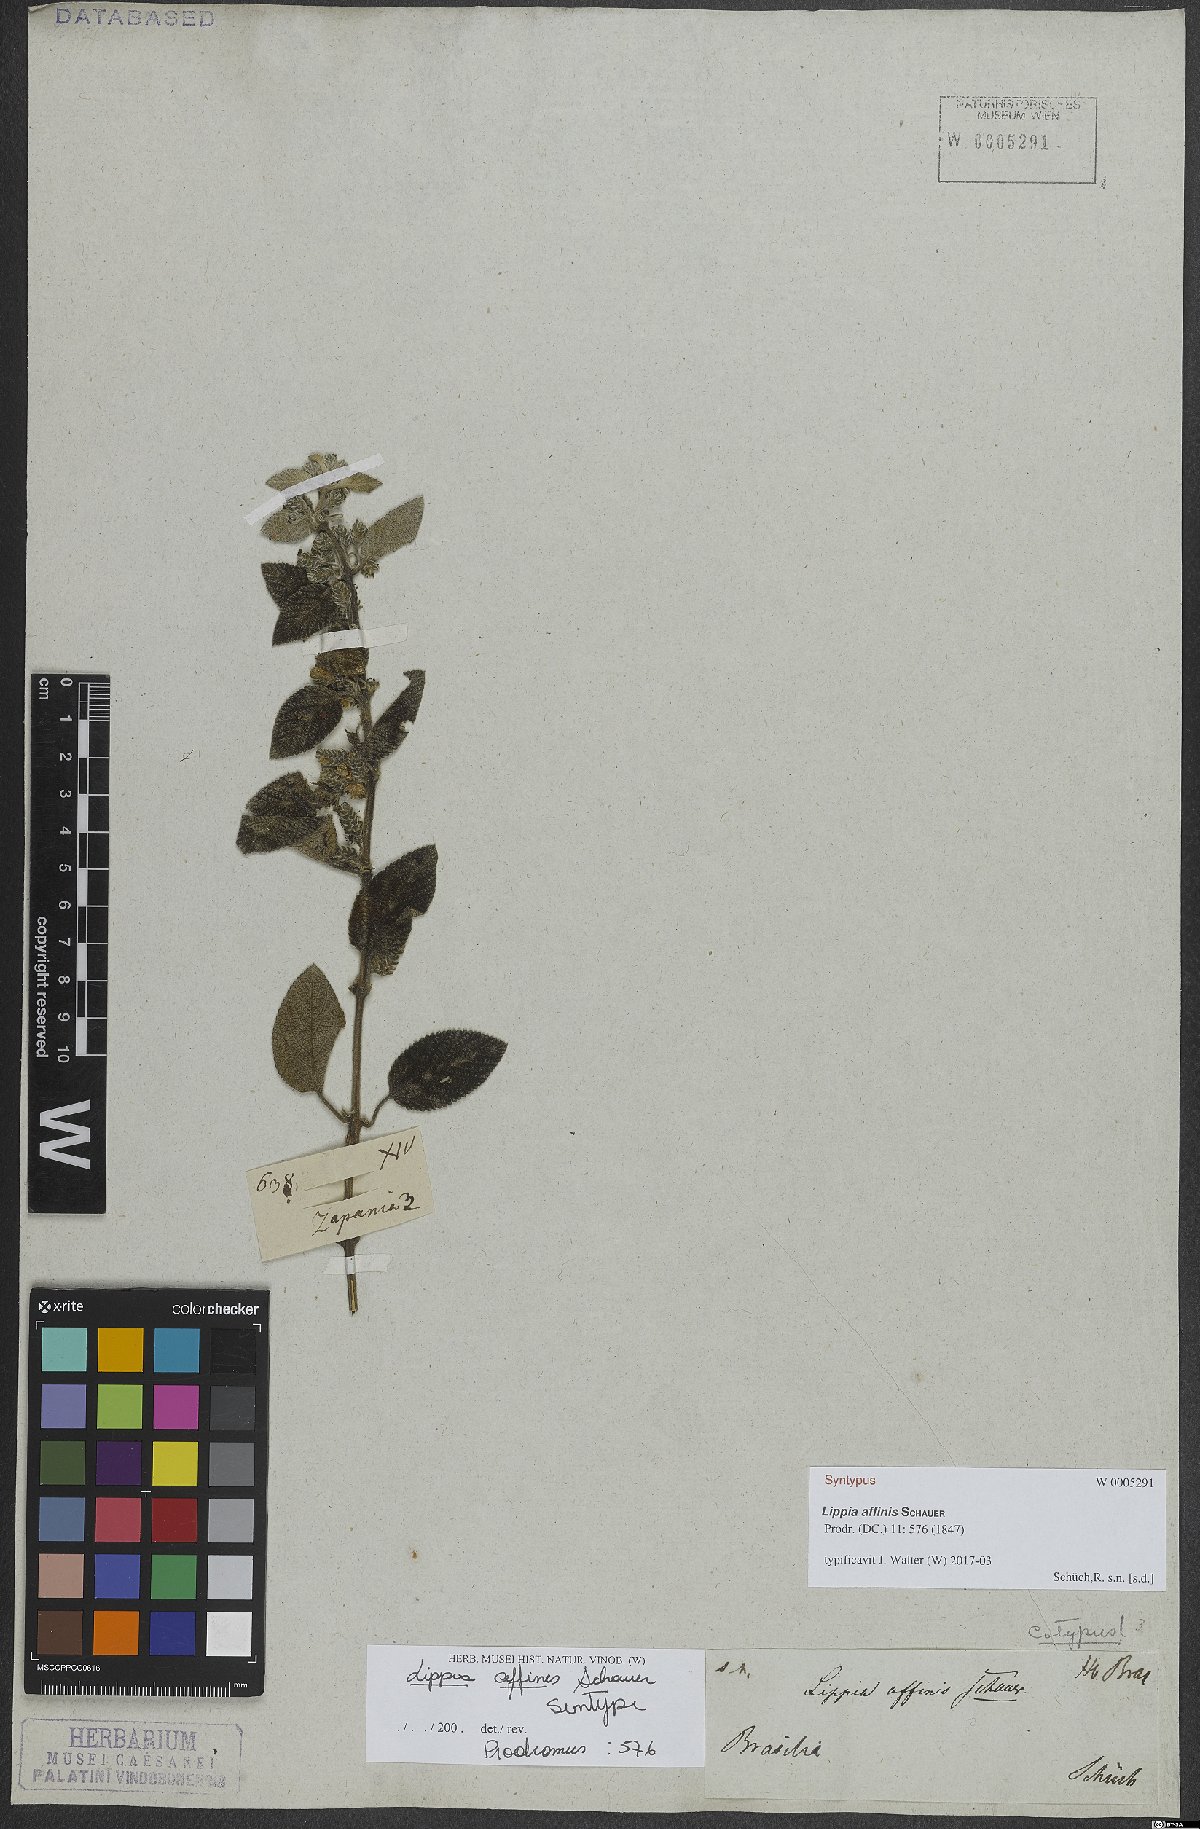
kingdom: Plantae
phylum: Tracheophyta
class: Magnoliopsida
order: Lamiales
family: Verbenaceae
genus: Lippia
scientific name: Lippia origanoides
